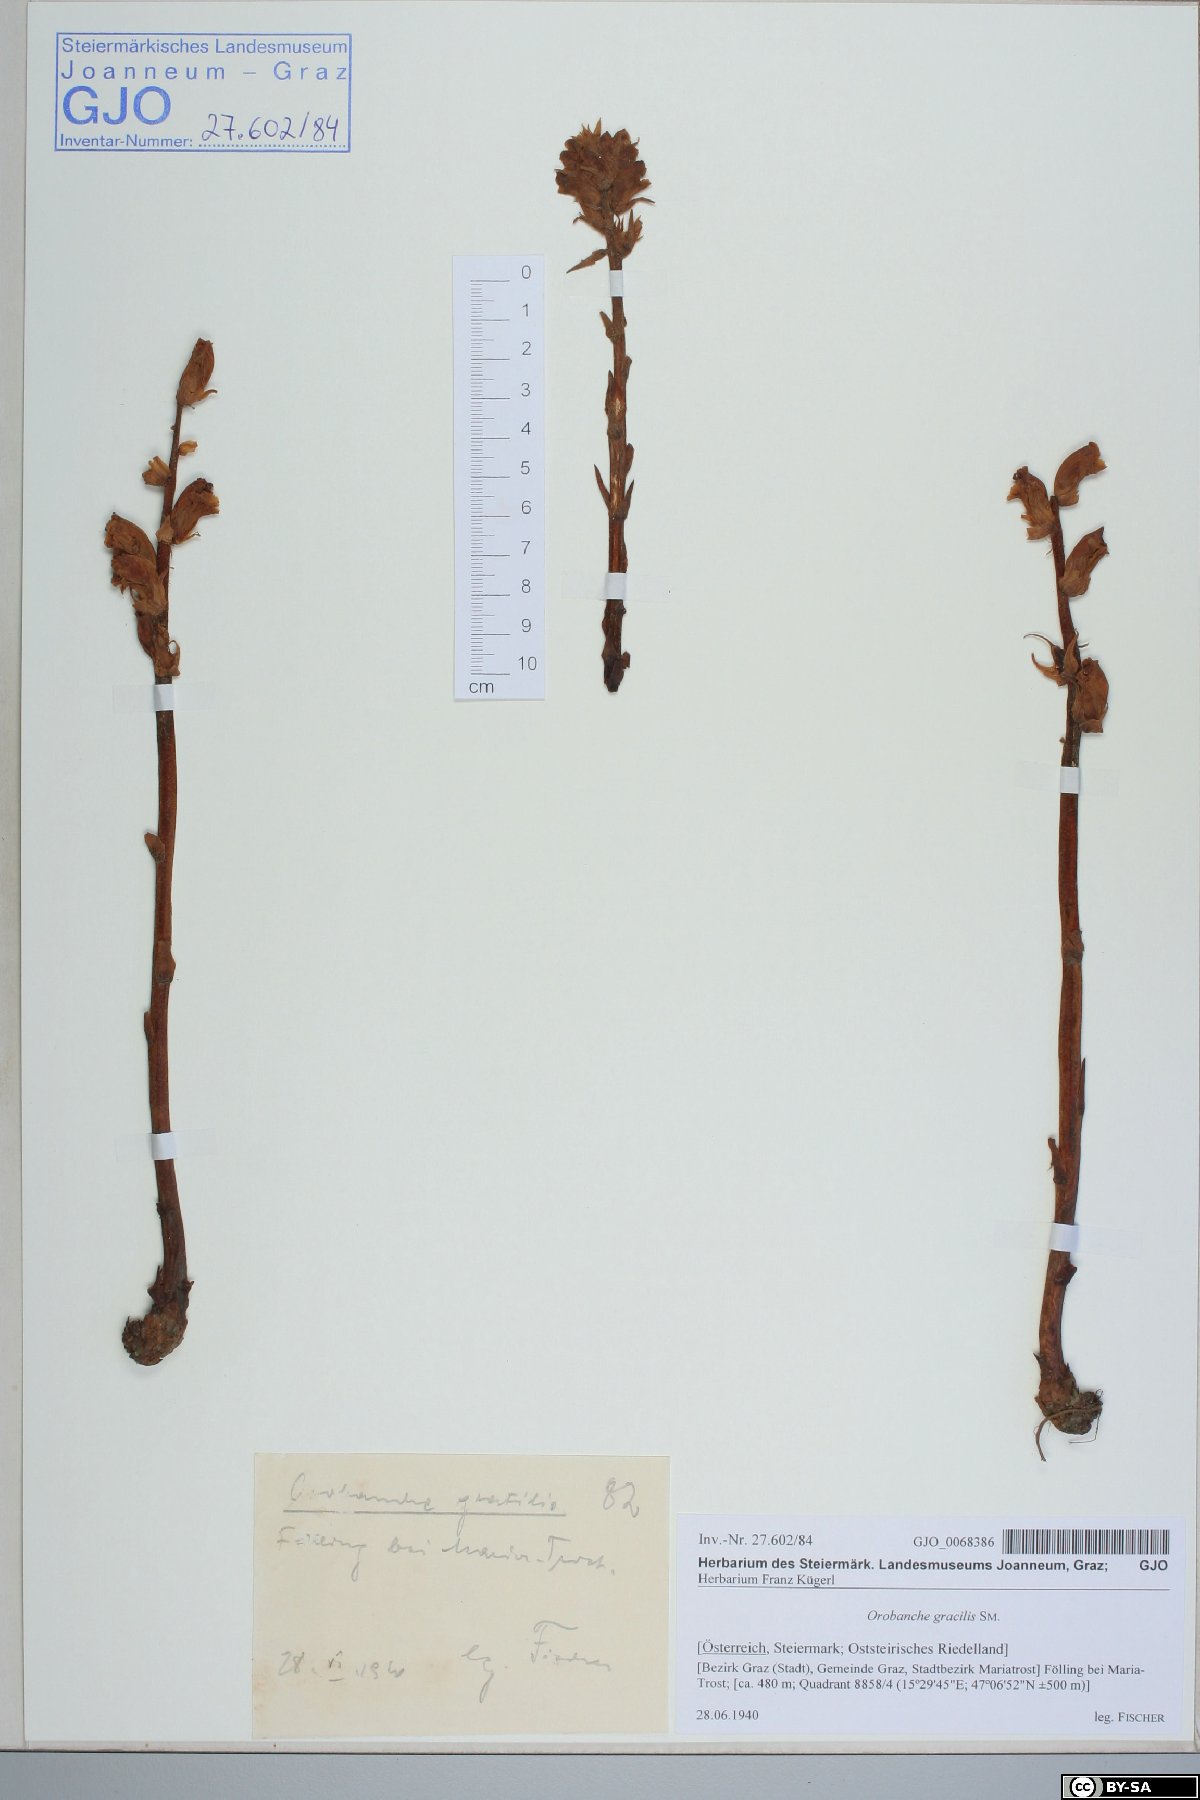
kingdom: Plantae
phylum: Tracheophyta
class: Magnoliopsida
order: Lamiales
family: Orobanchaceae
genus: Orobanche
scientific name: Orobanche gracilis
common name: Slender broomrape
